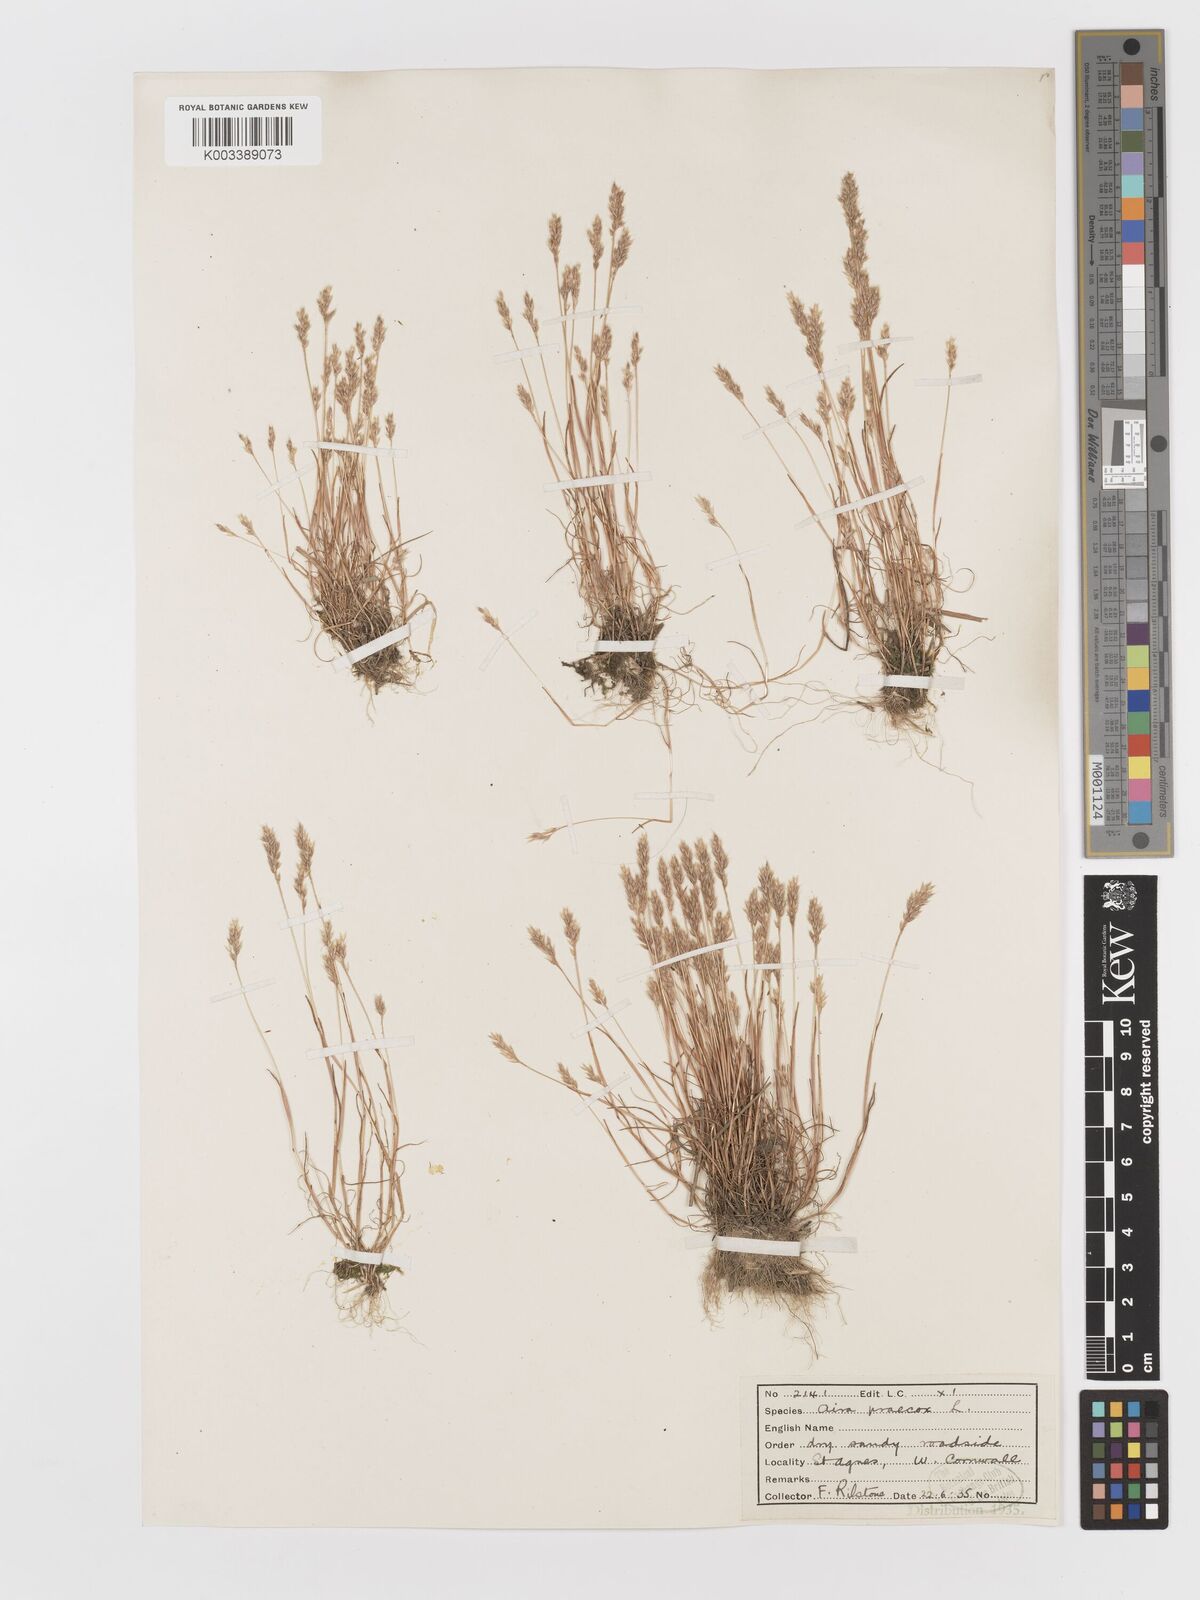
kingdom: Plantae
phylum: Tracheophyta
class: Liliopsida
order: Poales
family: Poaceae
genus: Aira
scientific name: Aira praecox
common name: Early hair-grass
